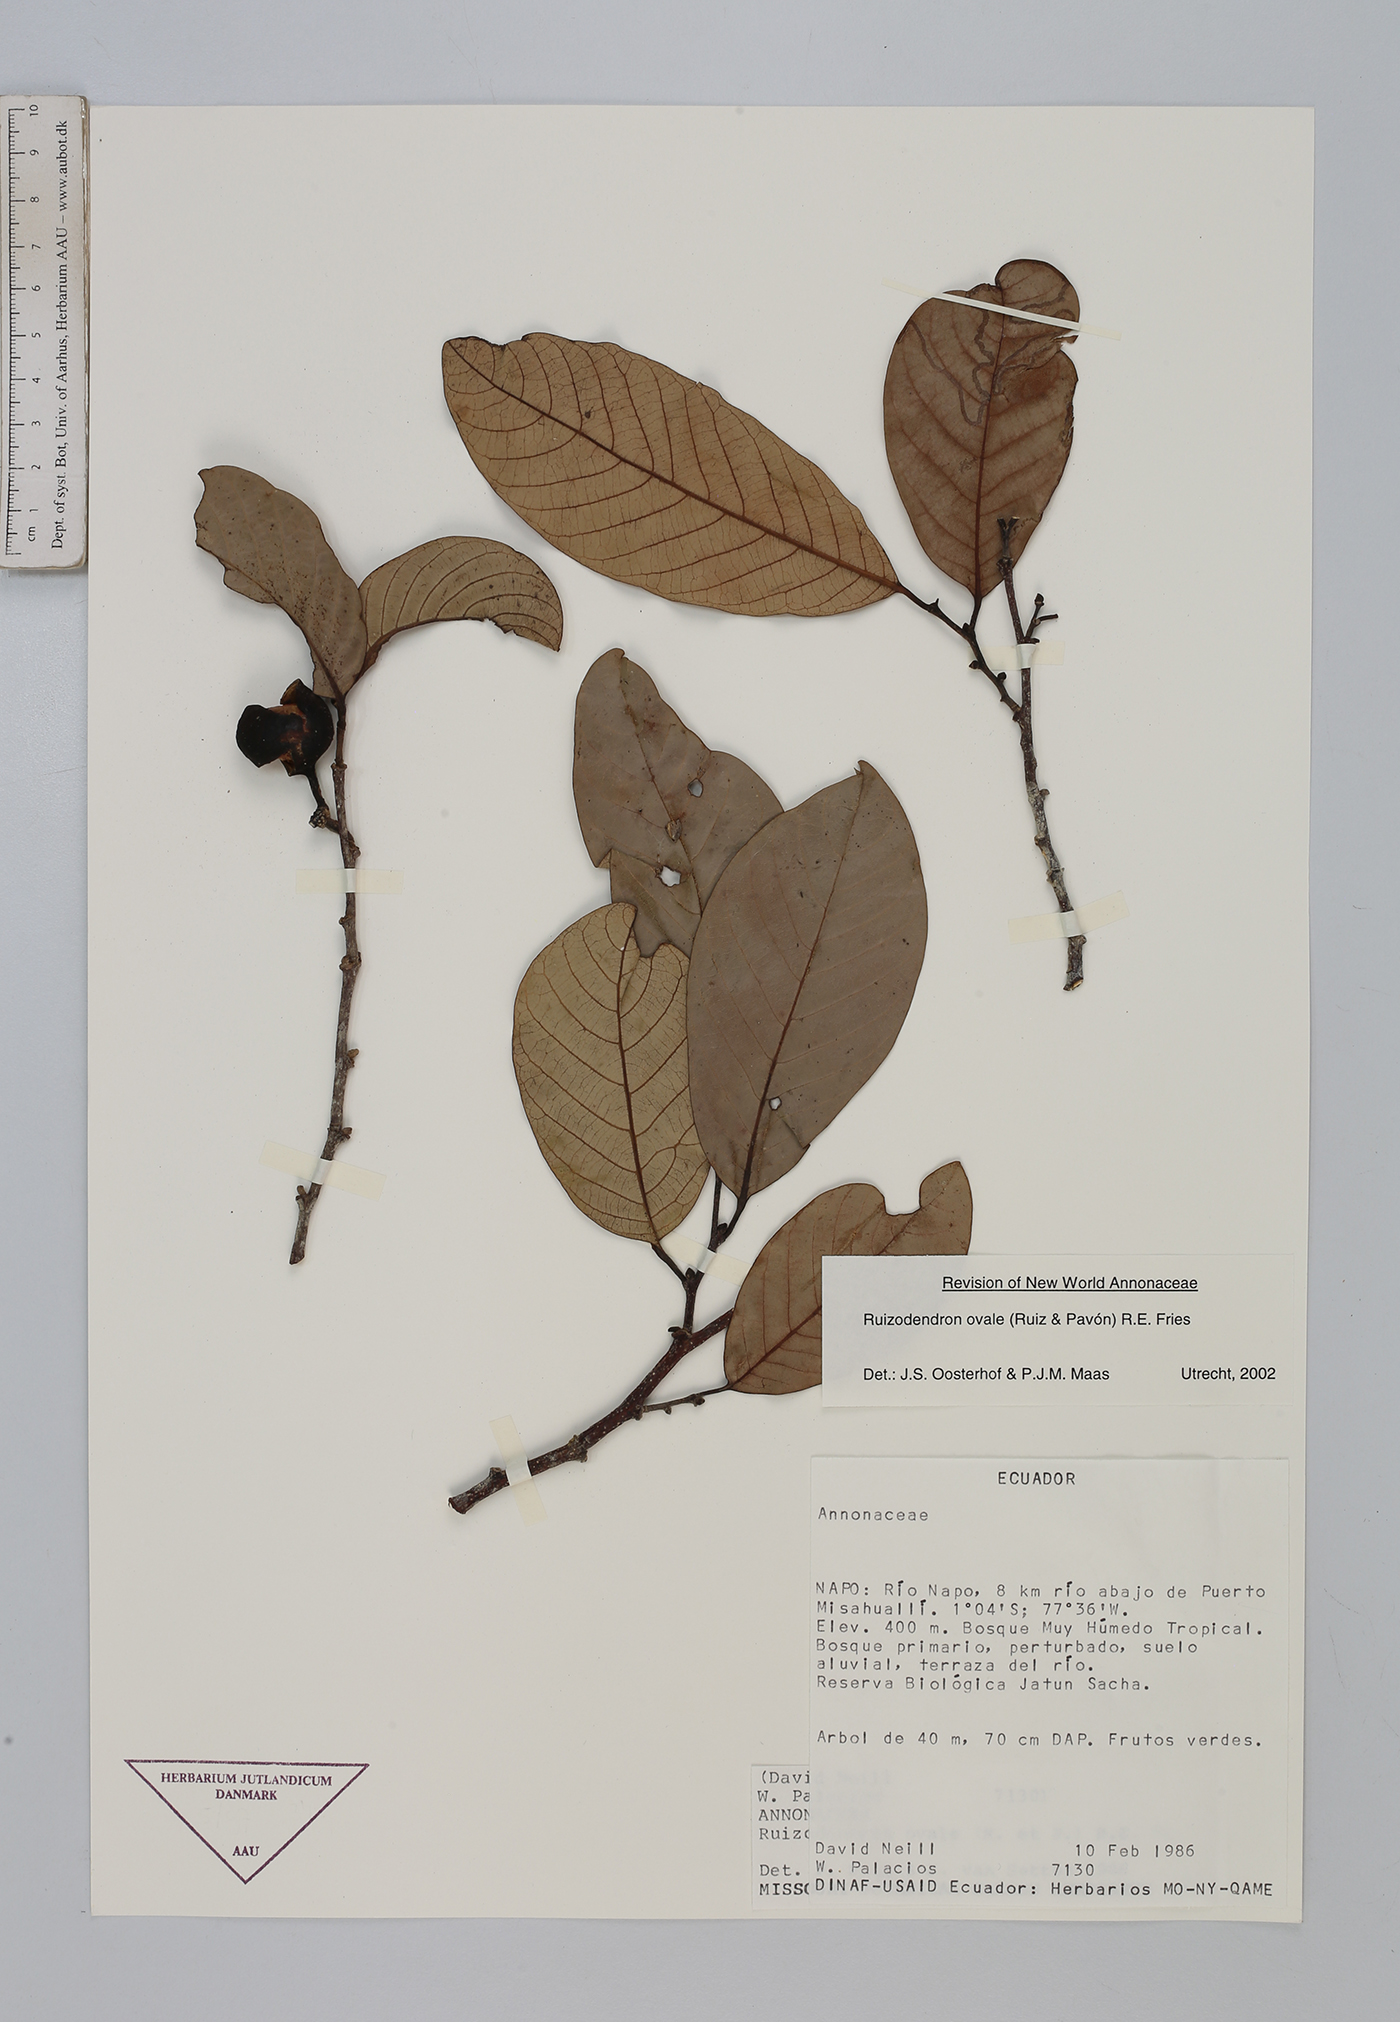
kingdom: Plantae
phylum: Tracheophyta
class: Magnoliopsida
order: Magnoliales
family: Annonaceae
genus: Ruizodendron
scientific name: Ruizodendron ovale
